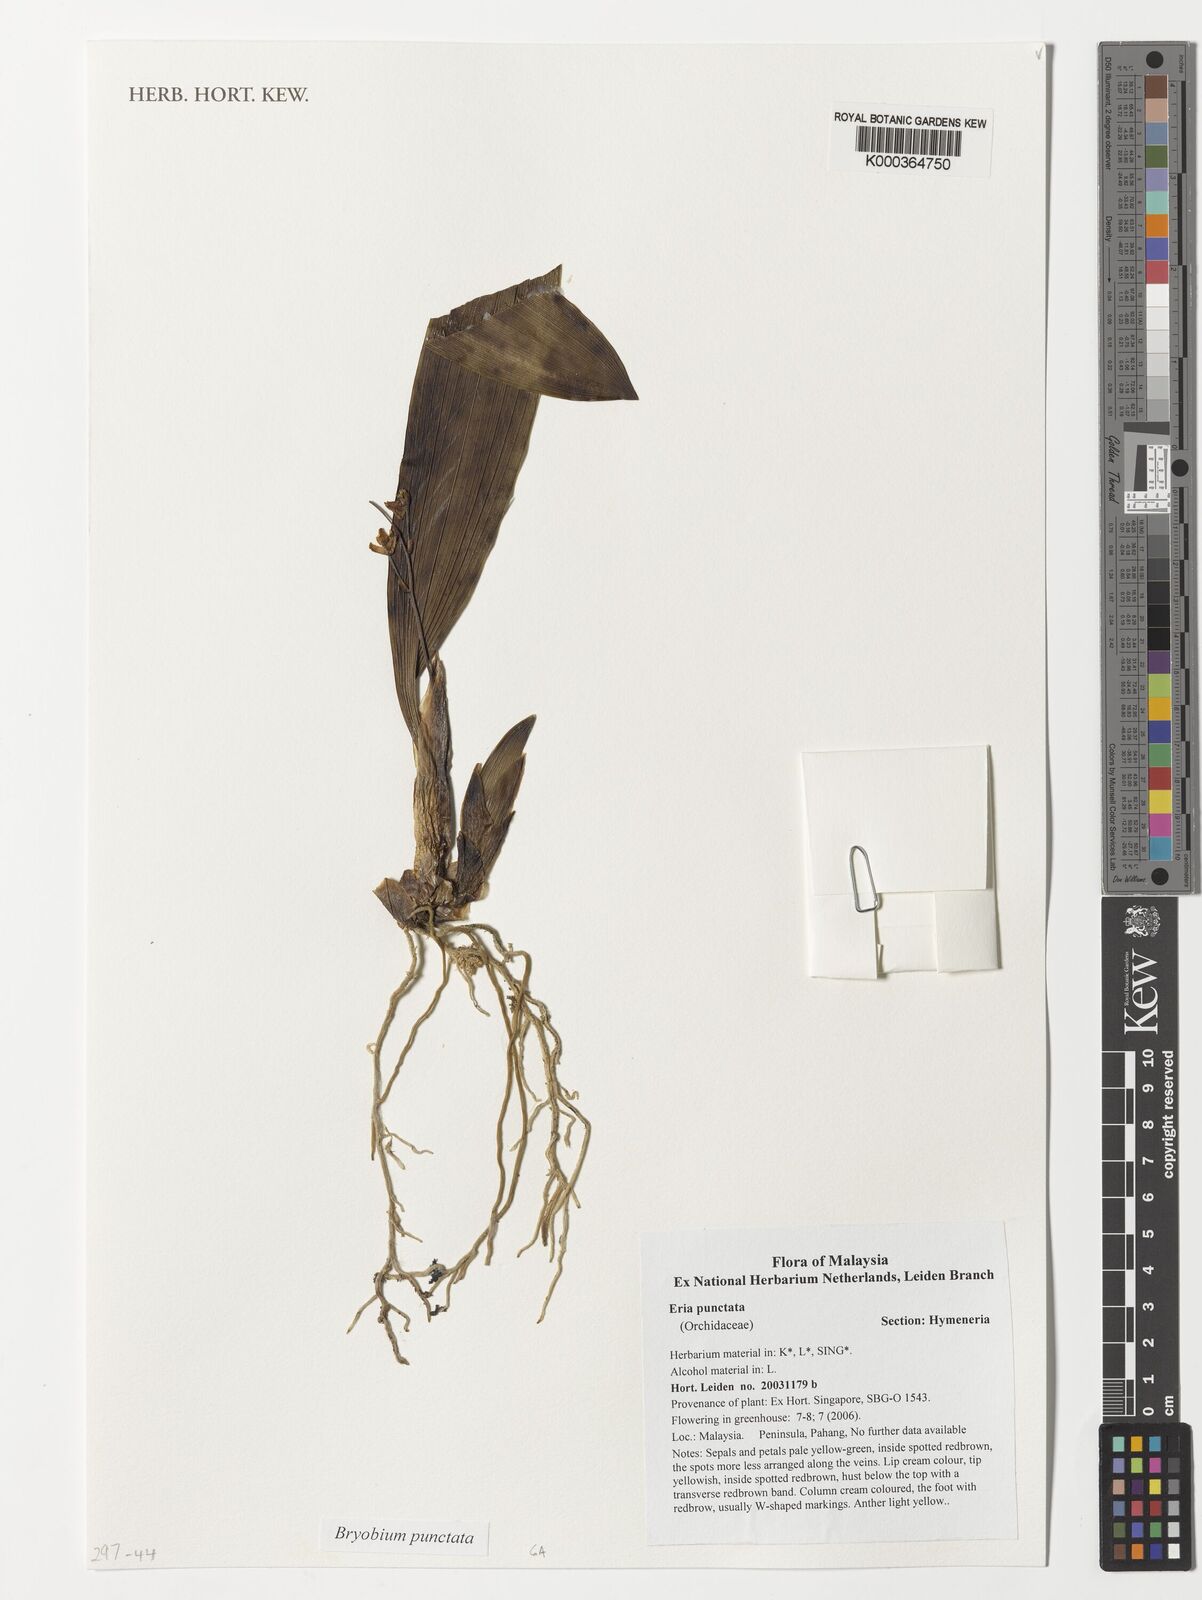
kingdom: Plantae
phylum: Tracheophyta
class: Liliopsida
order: Asparagales
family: Orchidaceae
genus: Bryobium
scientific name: Bryobium punctatum
